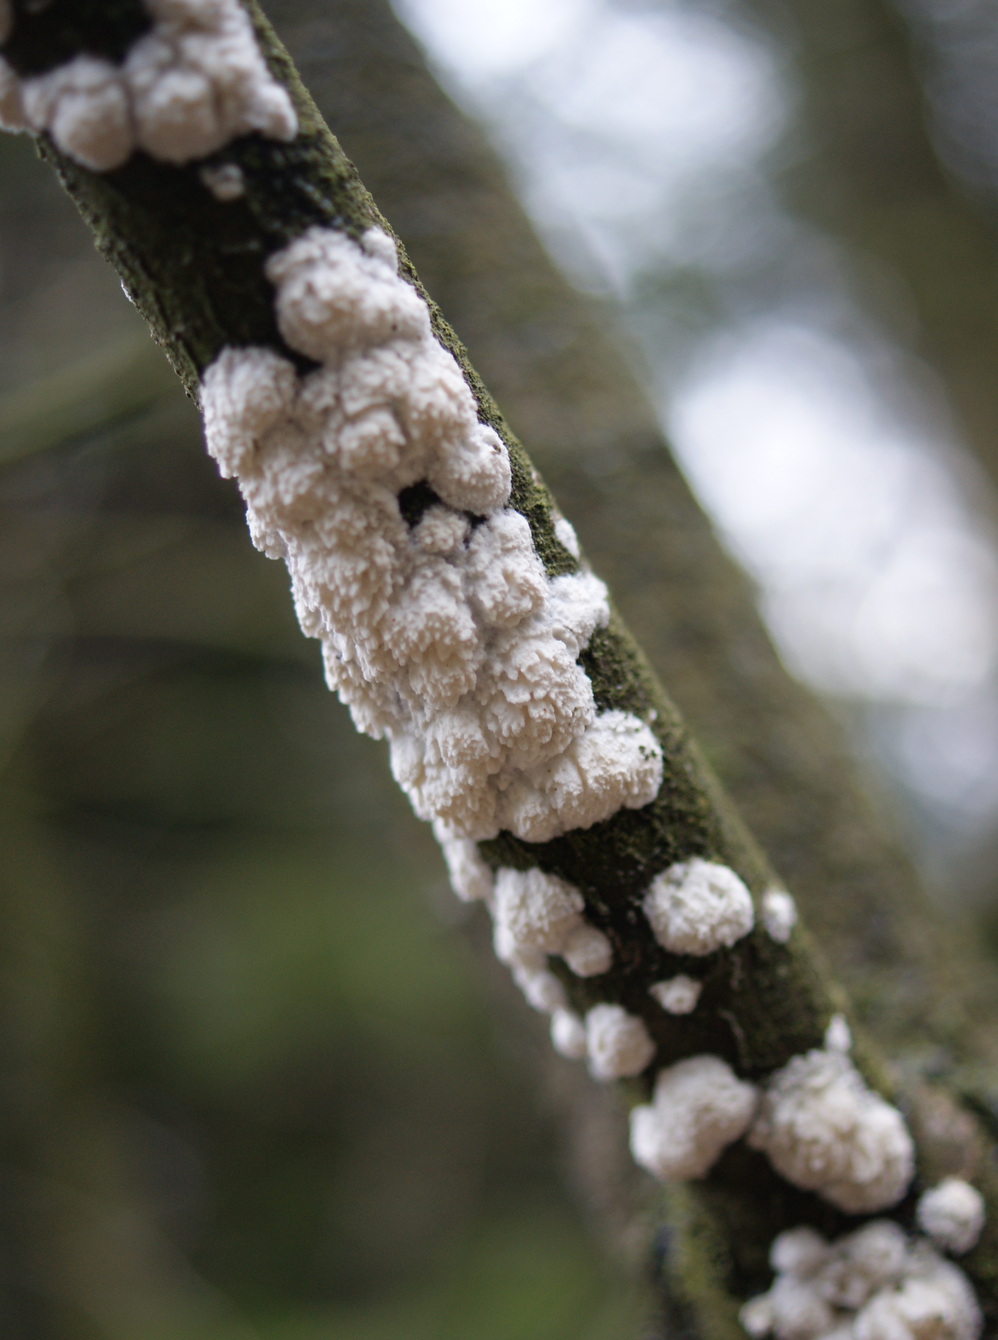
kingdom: Fungi
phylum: Basidiomycota
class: Agaricomycetes
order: Hymenochaetales
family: Schizoporaceae
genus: Schizopora
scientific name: Schizopora paradoxa
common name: hvid tandsvamp
